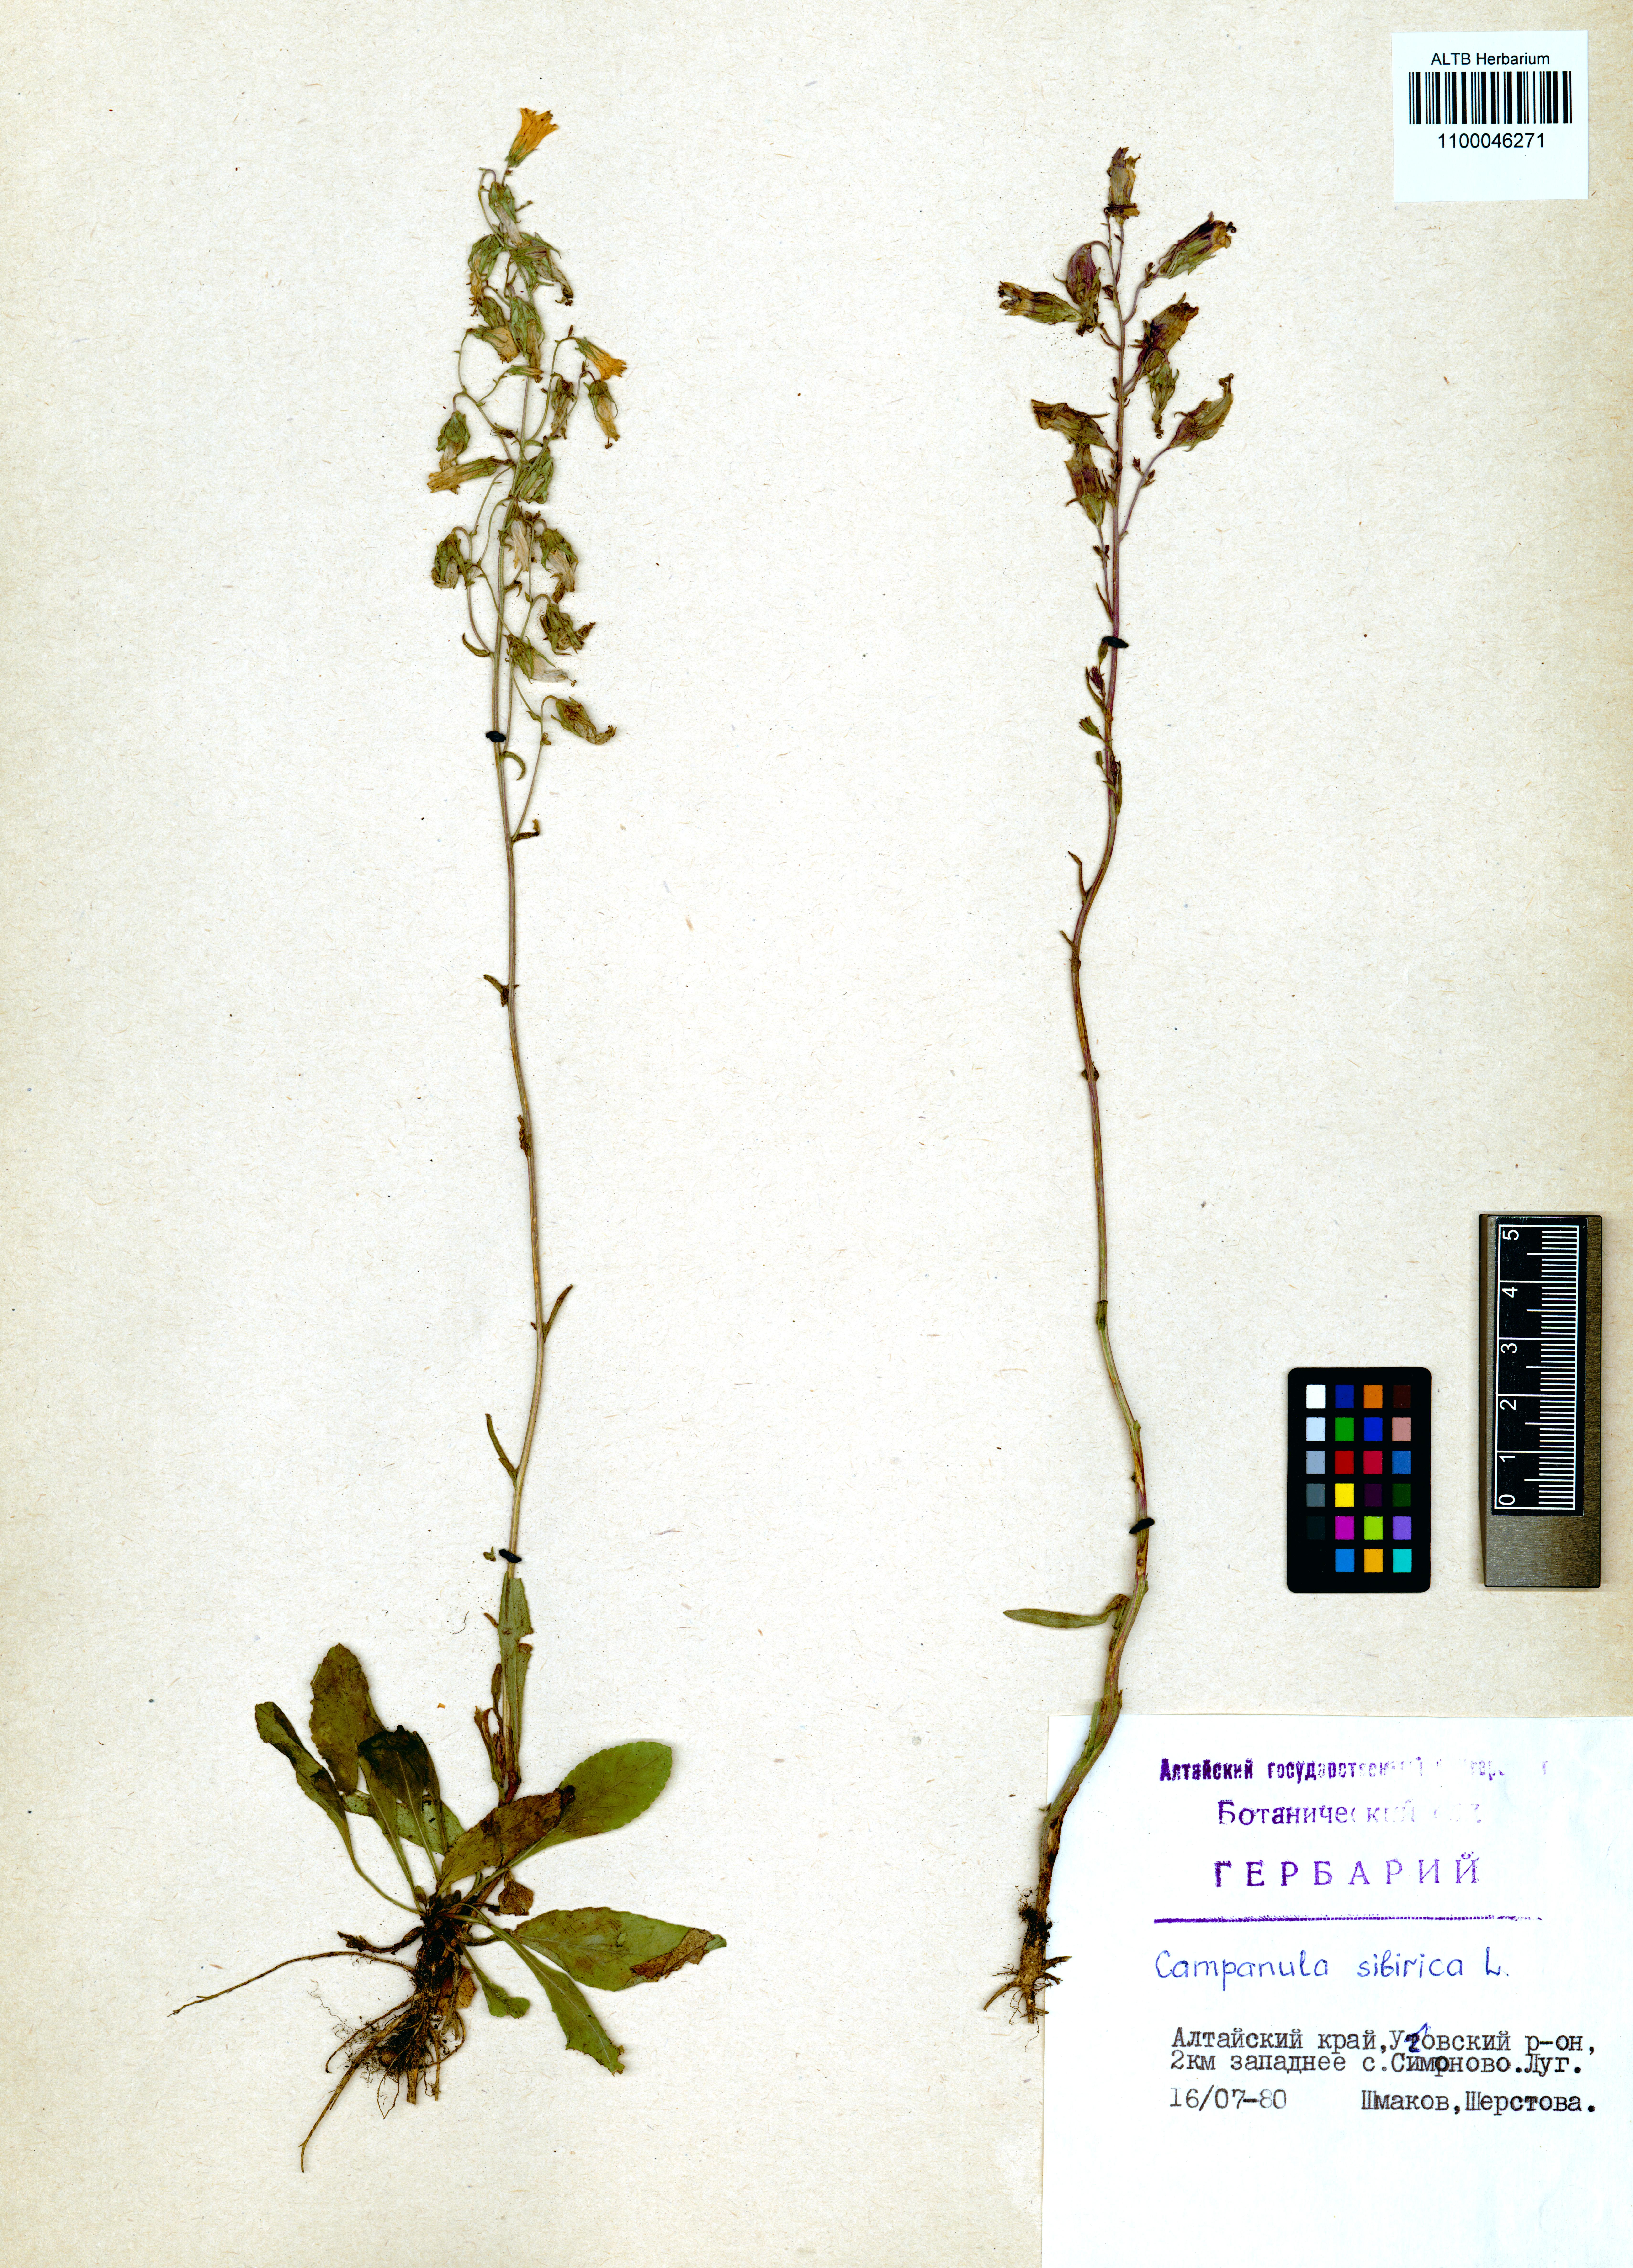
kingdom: Plantae
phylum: Tracheophyta
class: Magnoliopsida
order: Asterales
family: Campanulaceae
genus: Campanula
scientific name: Campanula sibirica
